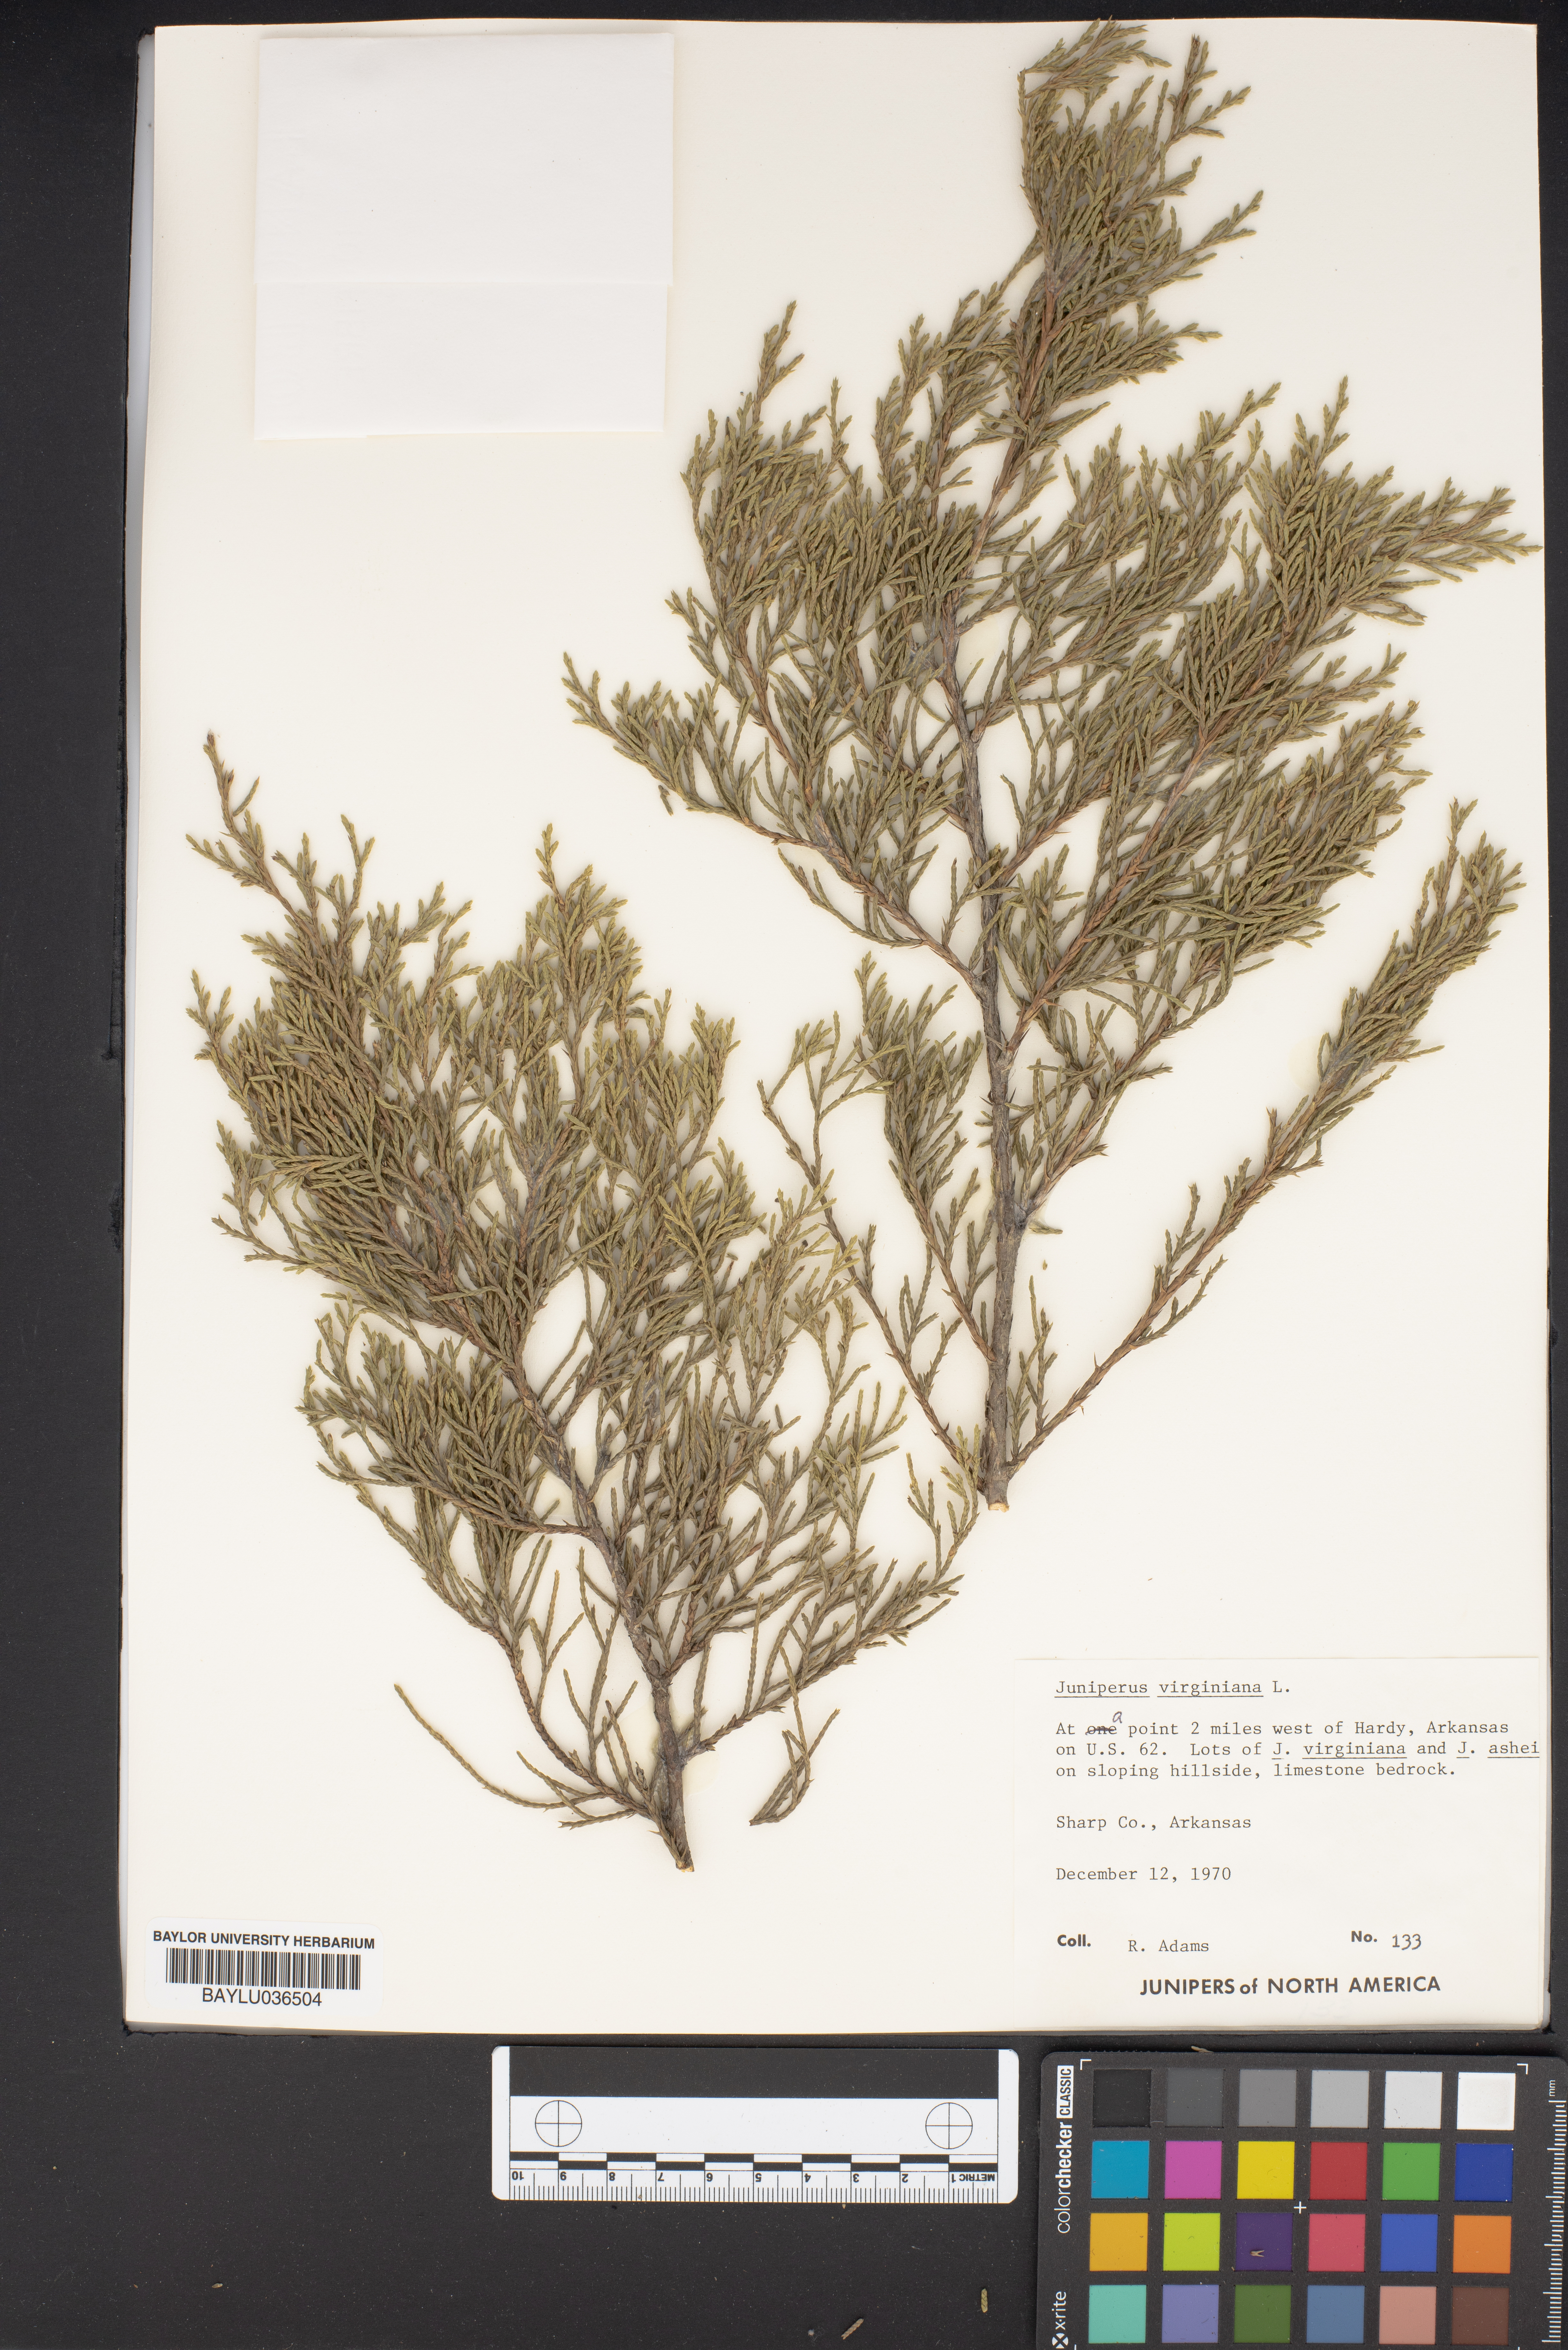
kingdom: Plantae
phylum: Tracheophyta
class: Pinopsida
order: Pinales
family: Cupressaceae
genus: Juniperus
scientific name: Juniperus virginiana
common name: Red juniper
